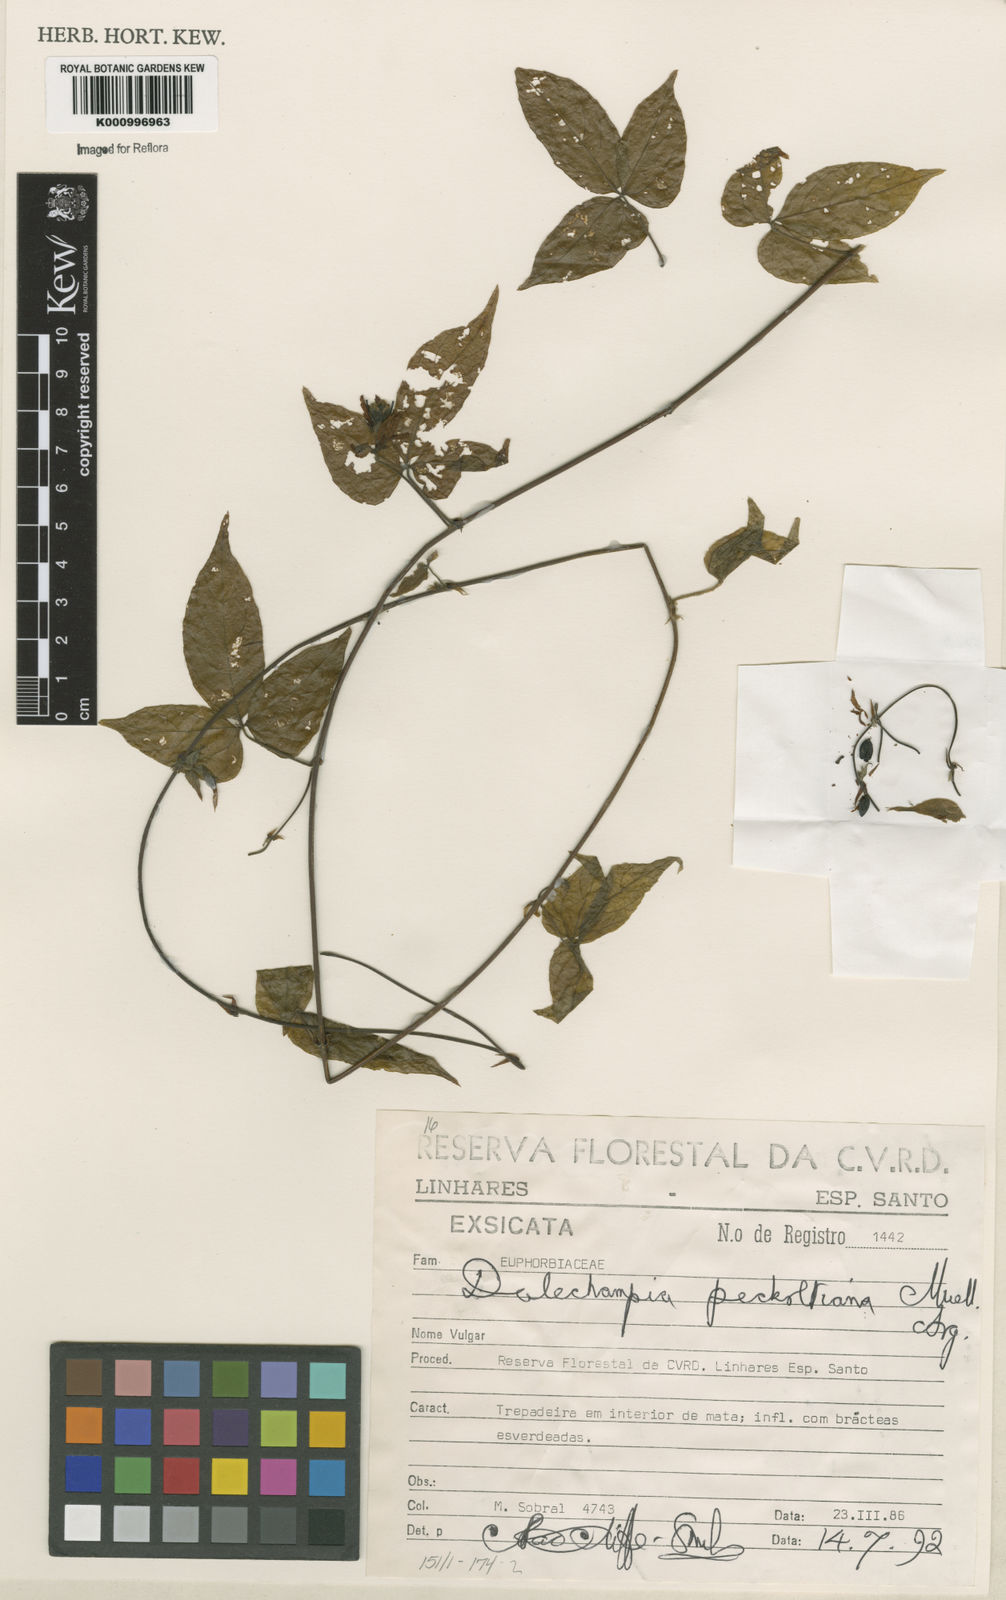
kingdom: Plantae
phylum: Tracheophyta
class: Magnoliopsida
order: Malpighiales
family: Euphorbiaceae
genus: Dalechampia
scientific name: Dalechampia
